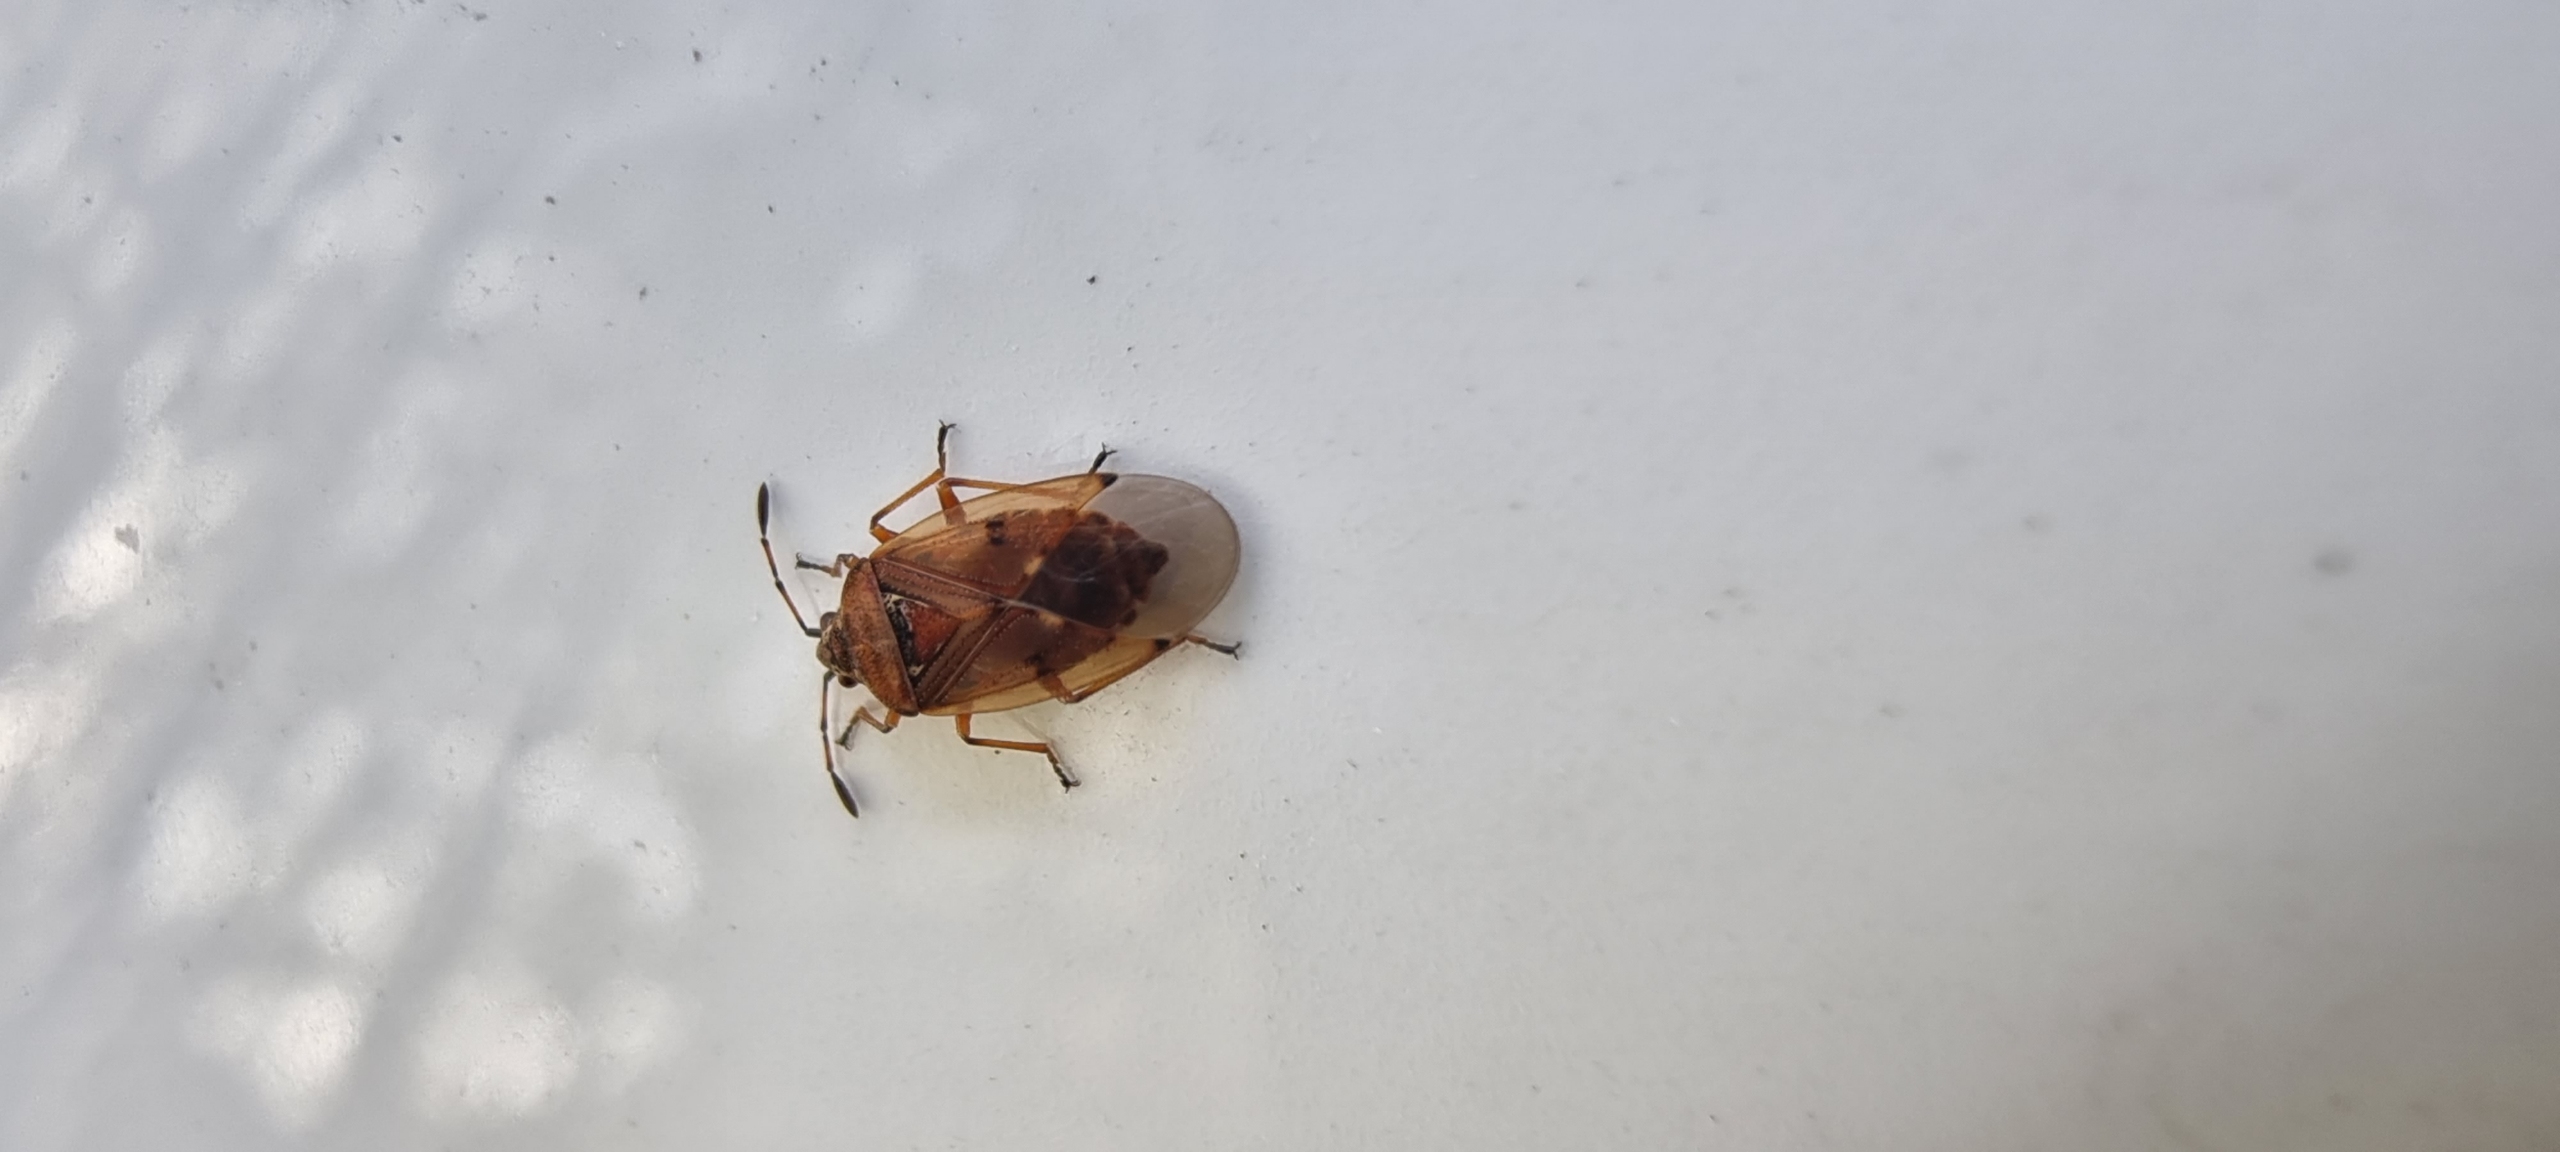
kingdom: Animalia
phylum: Arthropoda
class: Insecta
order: Hemiptera
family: Lygaeidae
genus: Kleidocerys
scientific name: Kleidocerys resedae
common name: Birkefrøtæge
